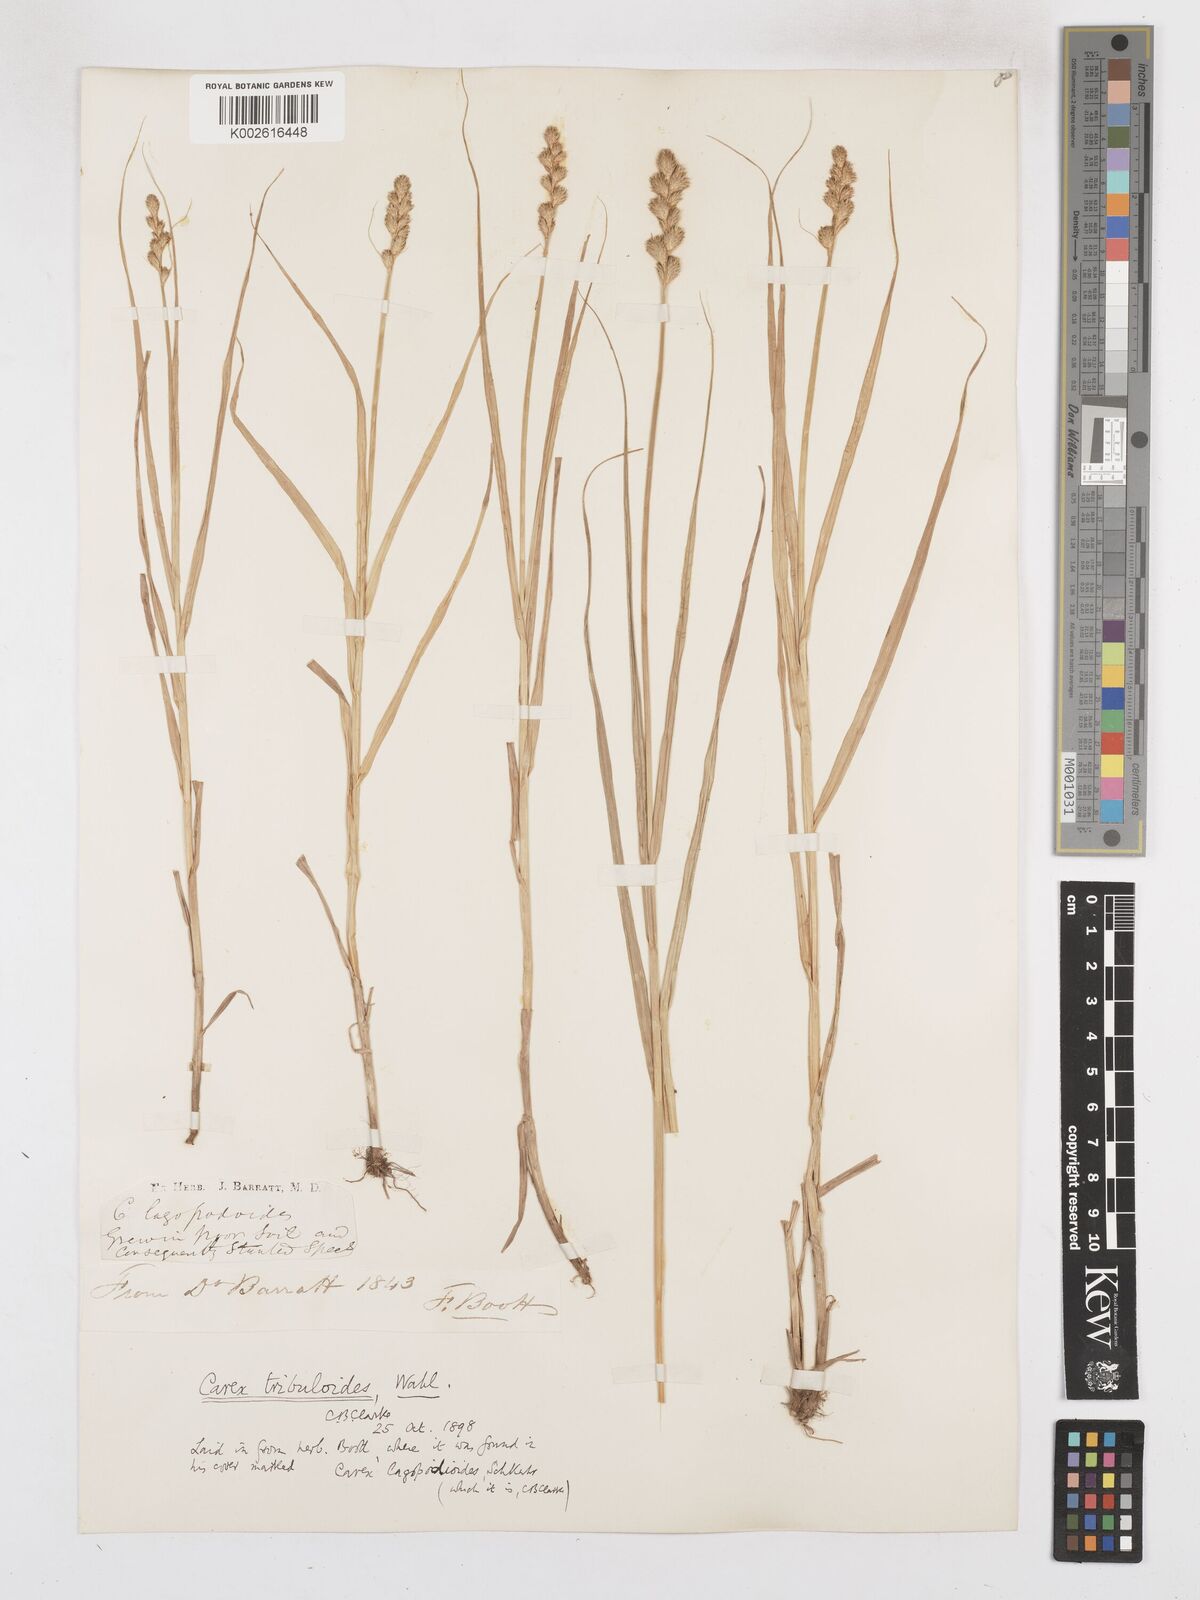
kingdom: Plantae
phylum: Tracheophyta
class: Liliopsida
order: Poales
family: Cyperaceae
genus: Carex
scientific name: Carex tribuloides
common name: Blunt broom sedge
